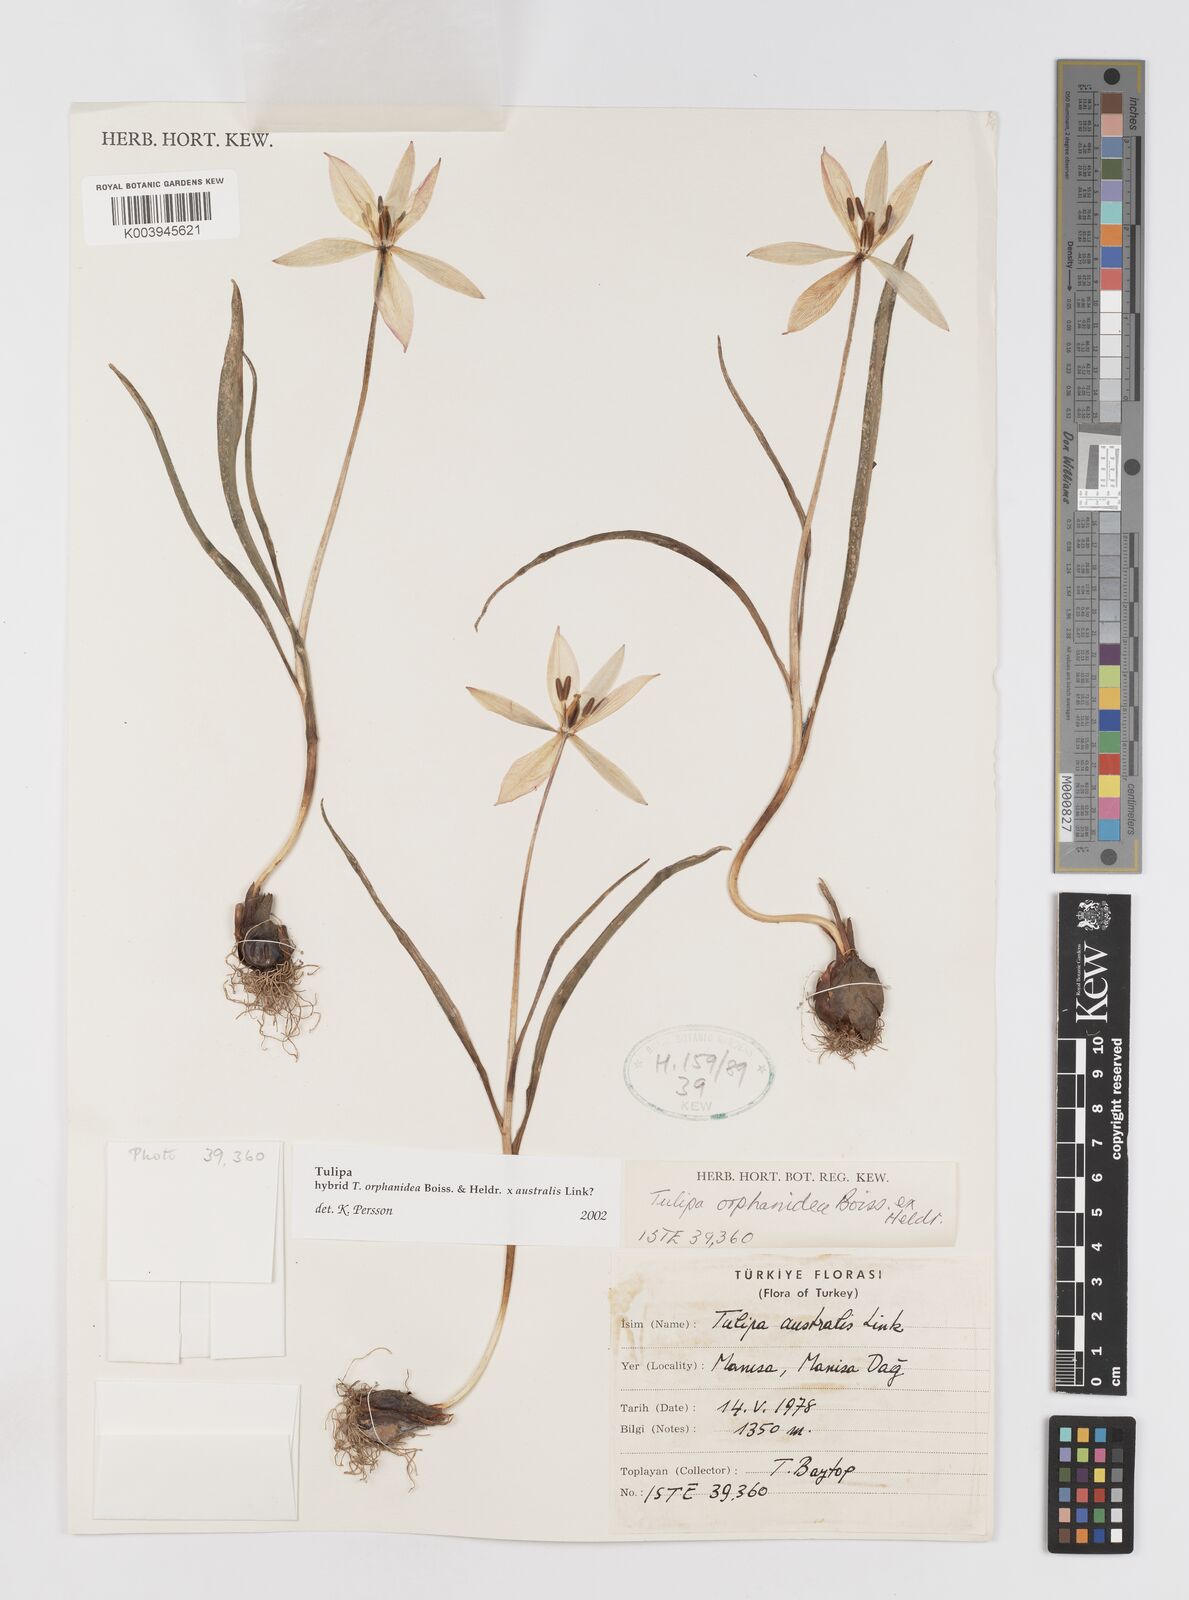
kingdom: Plantae
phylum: Tracheophyta
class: Liliopsida
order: Liliales
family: Liliaceae
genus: Tulipa
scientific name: Tulipa orphanidea
